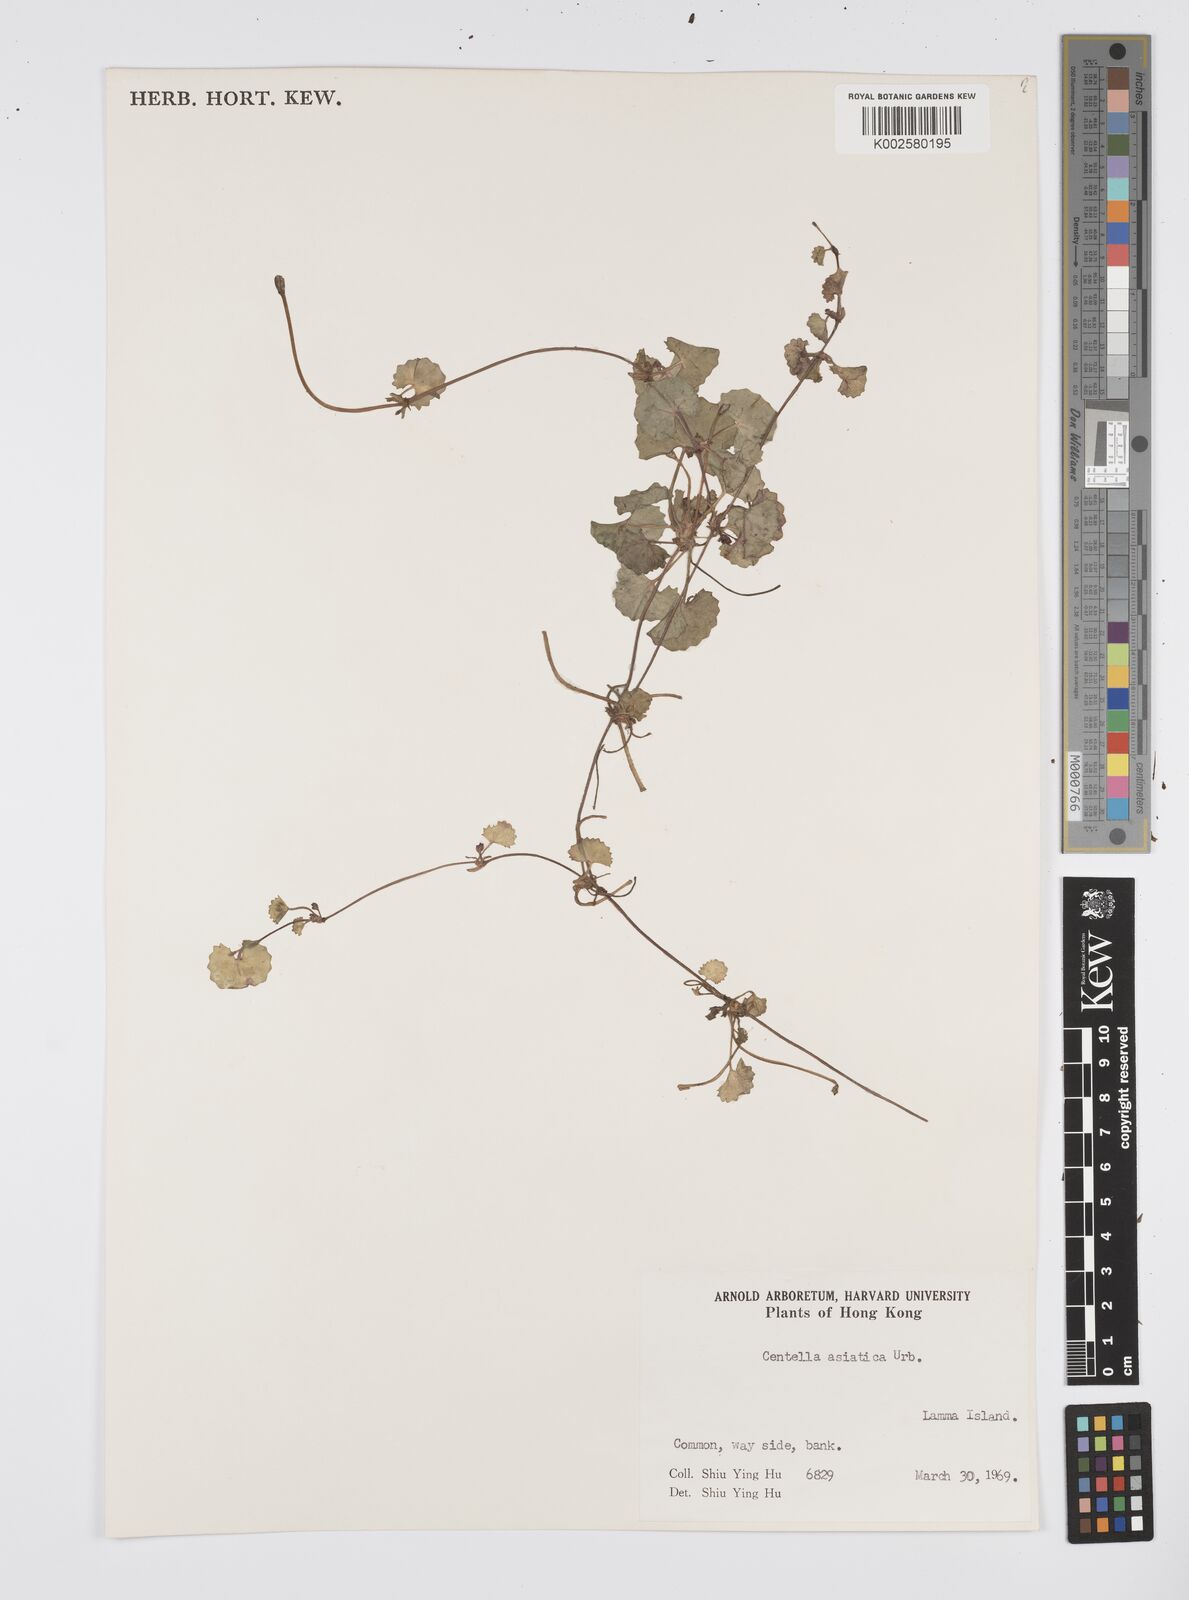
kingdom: Plantae
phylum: Tracheophyta
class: Magnoliopsida
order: Apiales
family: Apiaceae
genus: Centella
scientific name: Centella
